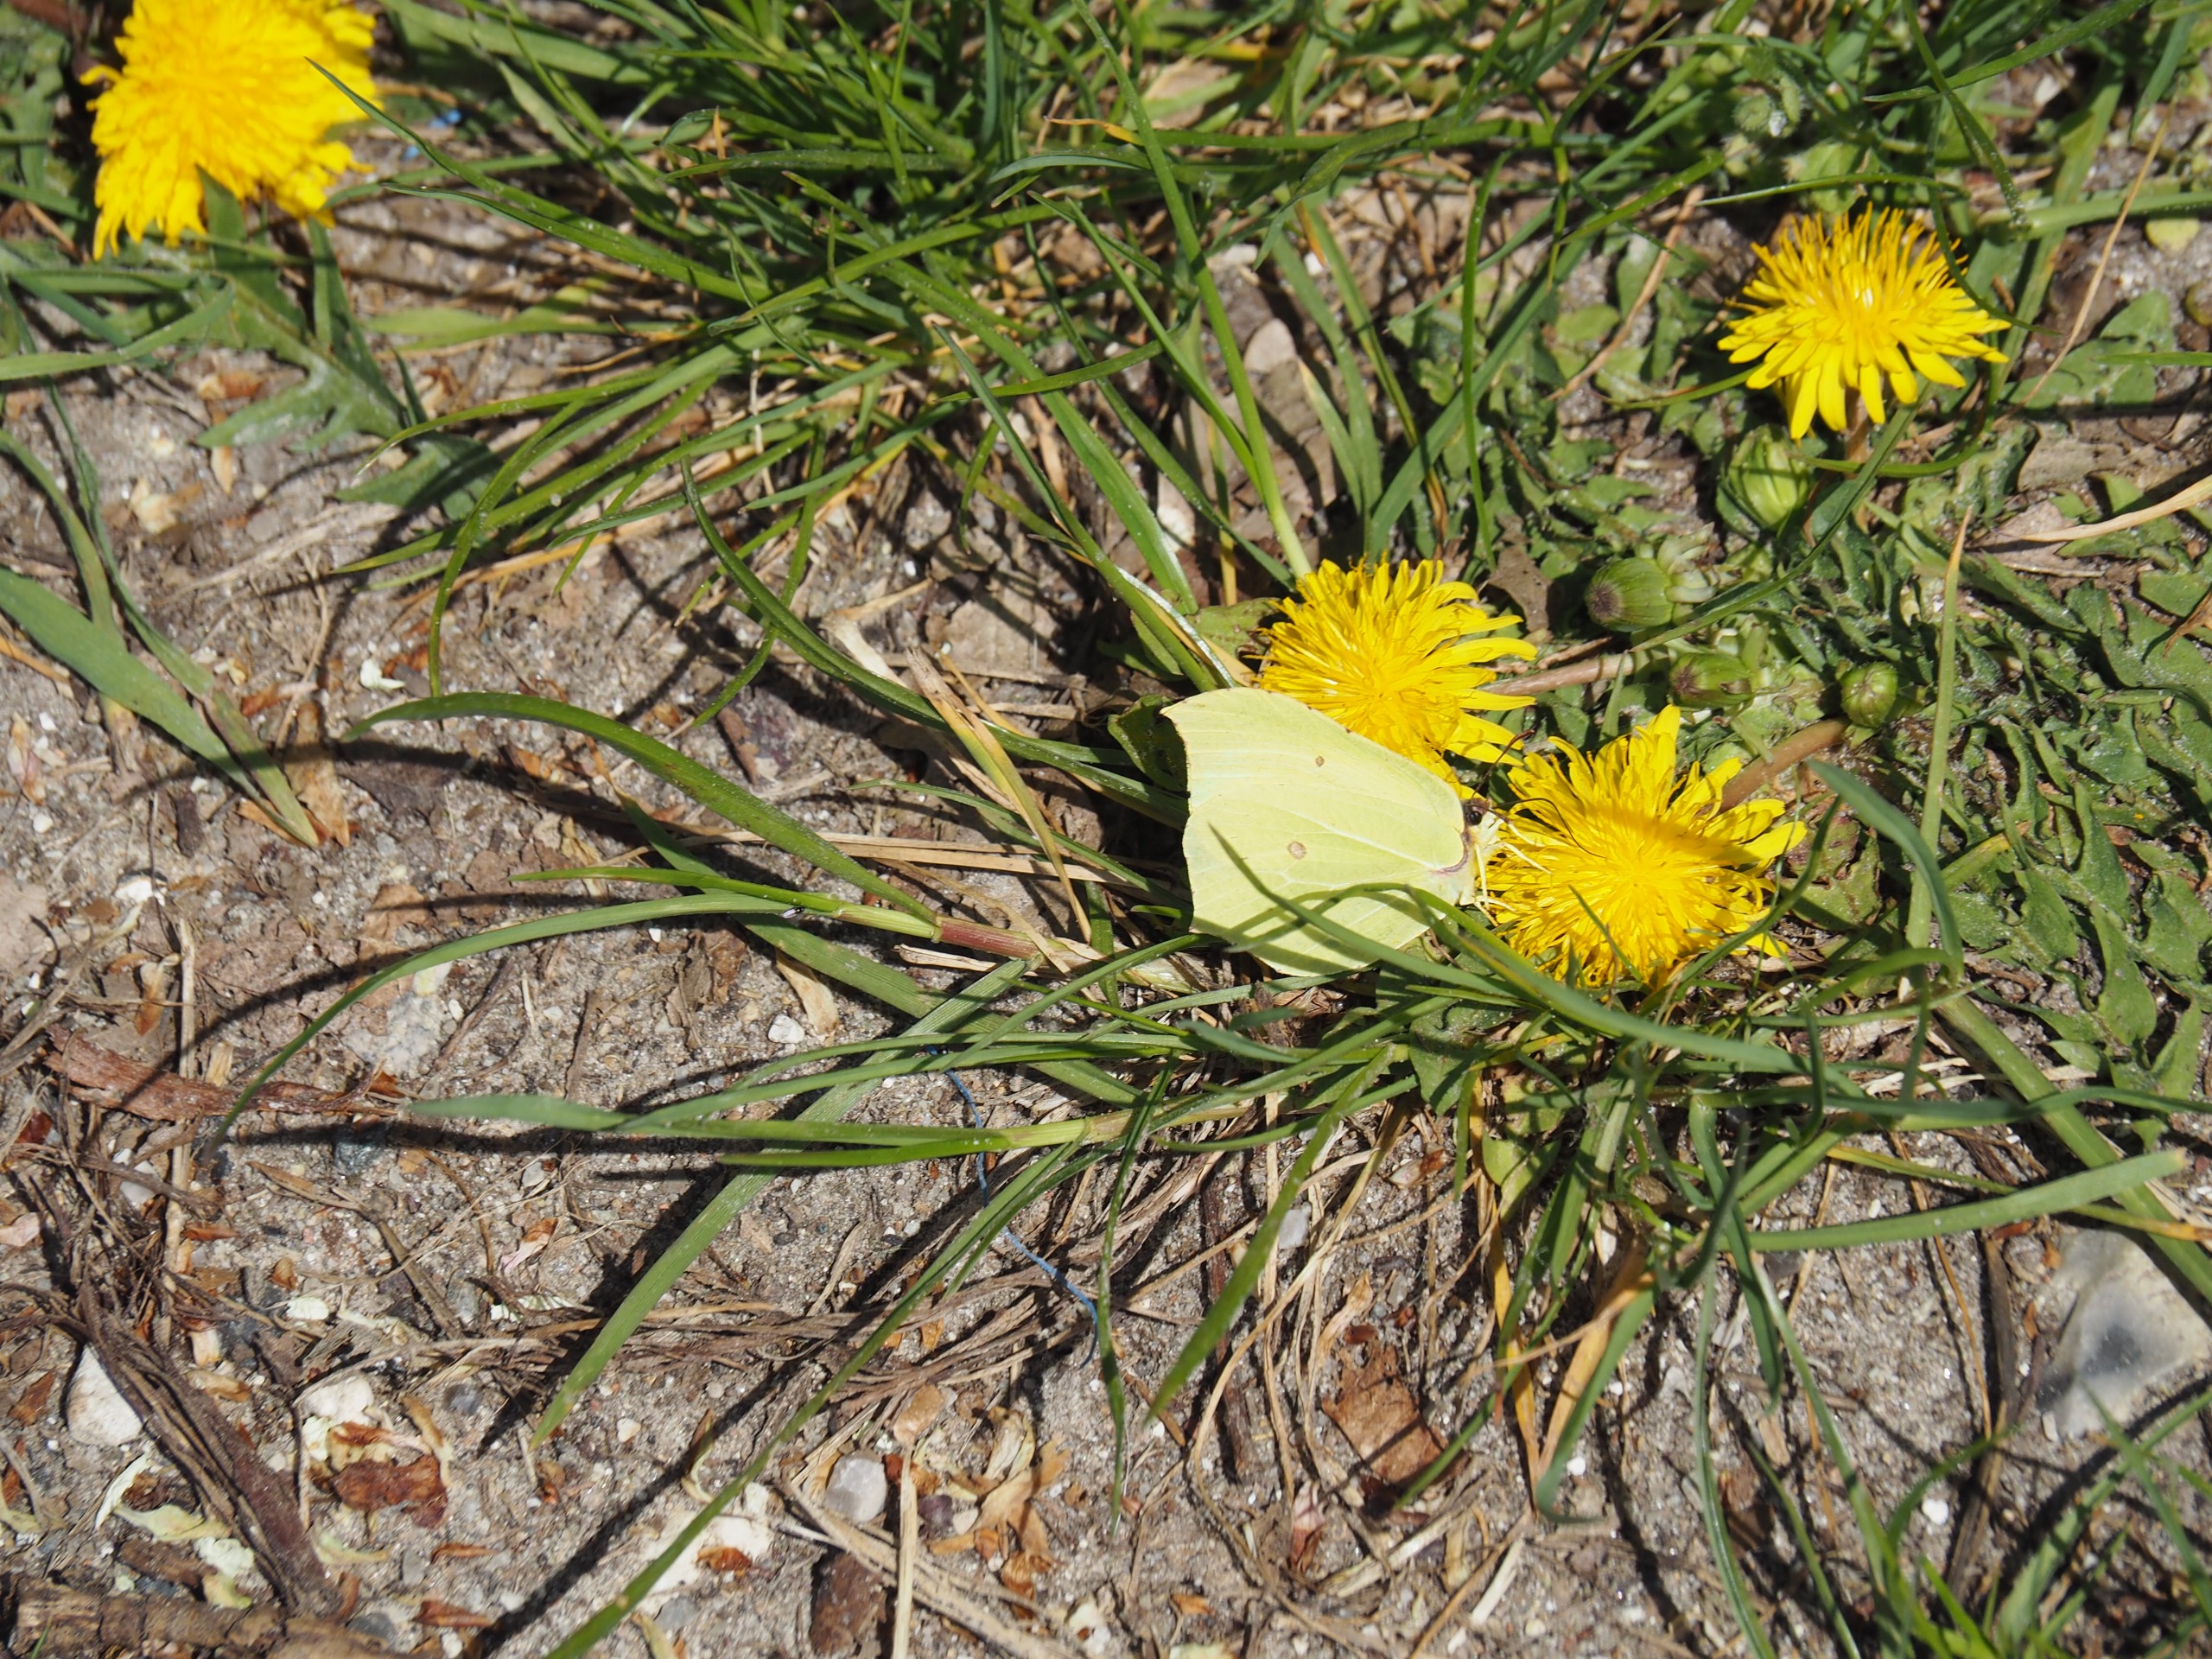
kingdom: Animalia
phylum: Arthropoda
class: Insecta
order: Lepidoptera
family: Pieridae
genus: Gonepteryx
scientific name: Gonepteryx rhamni
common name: Citronsommerfugl
